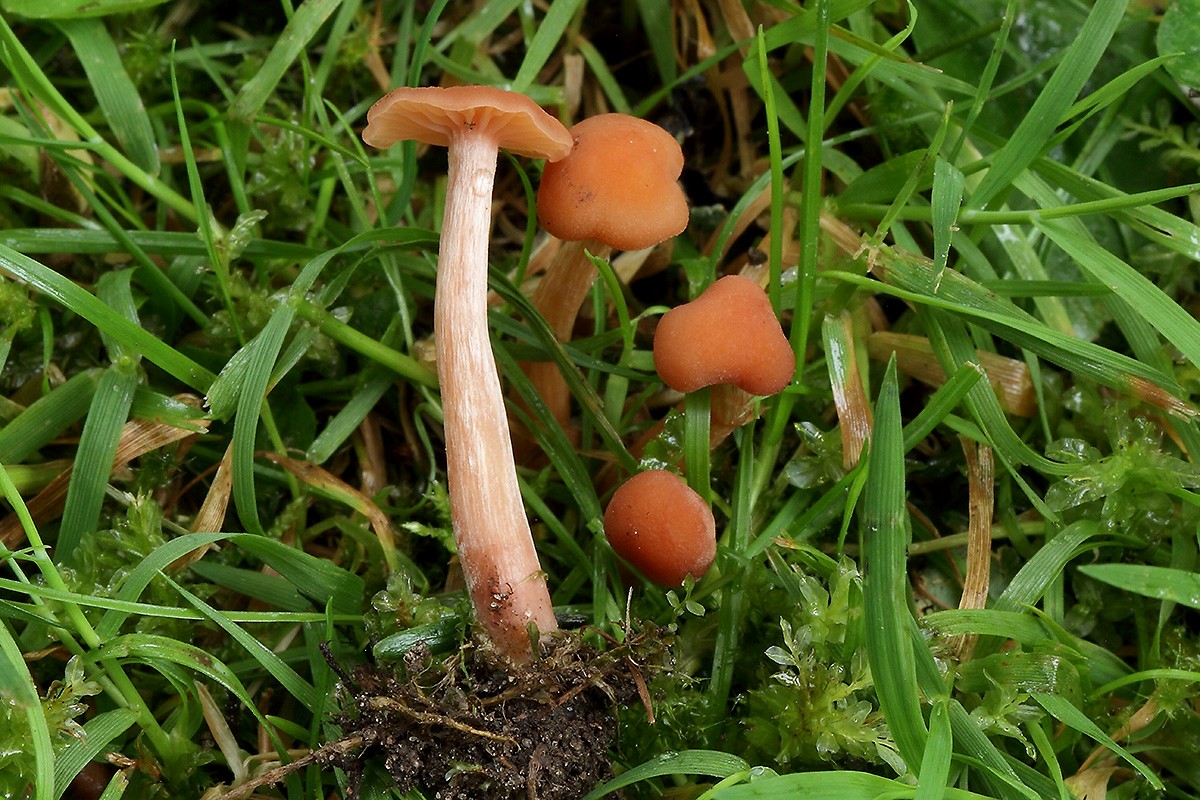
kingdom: Fungi
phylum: Basidiomycota
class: Agaricomycetes
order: Agaricales
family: Hydnangiaceae
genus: Laccaria
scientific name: Laccaria laccata
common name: rød ametysthat
